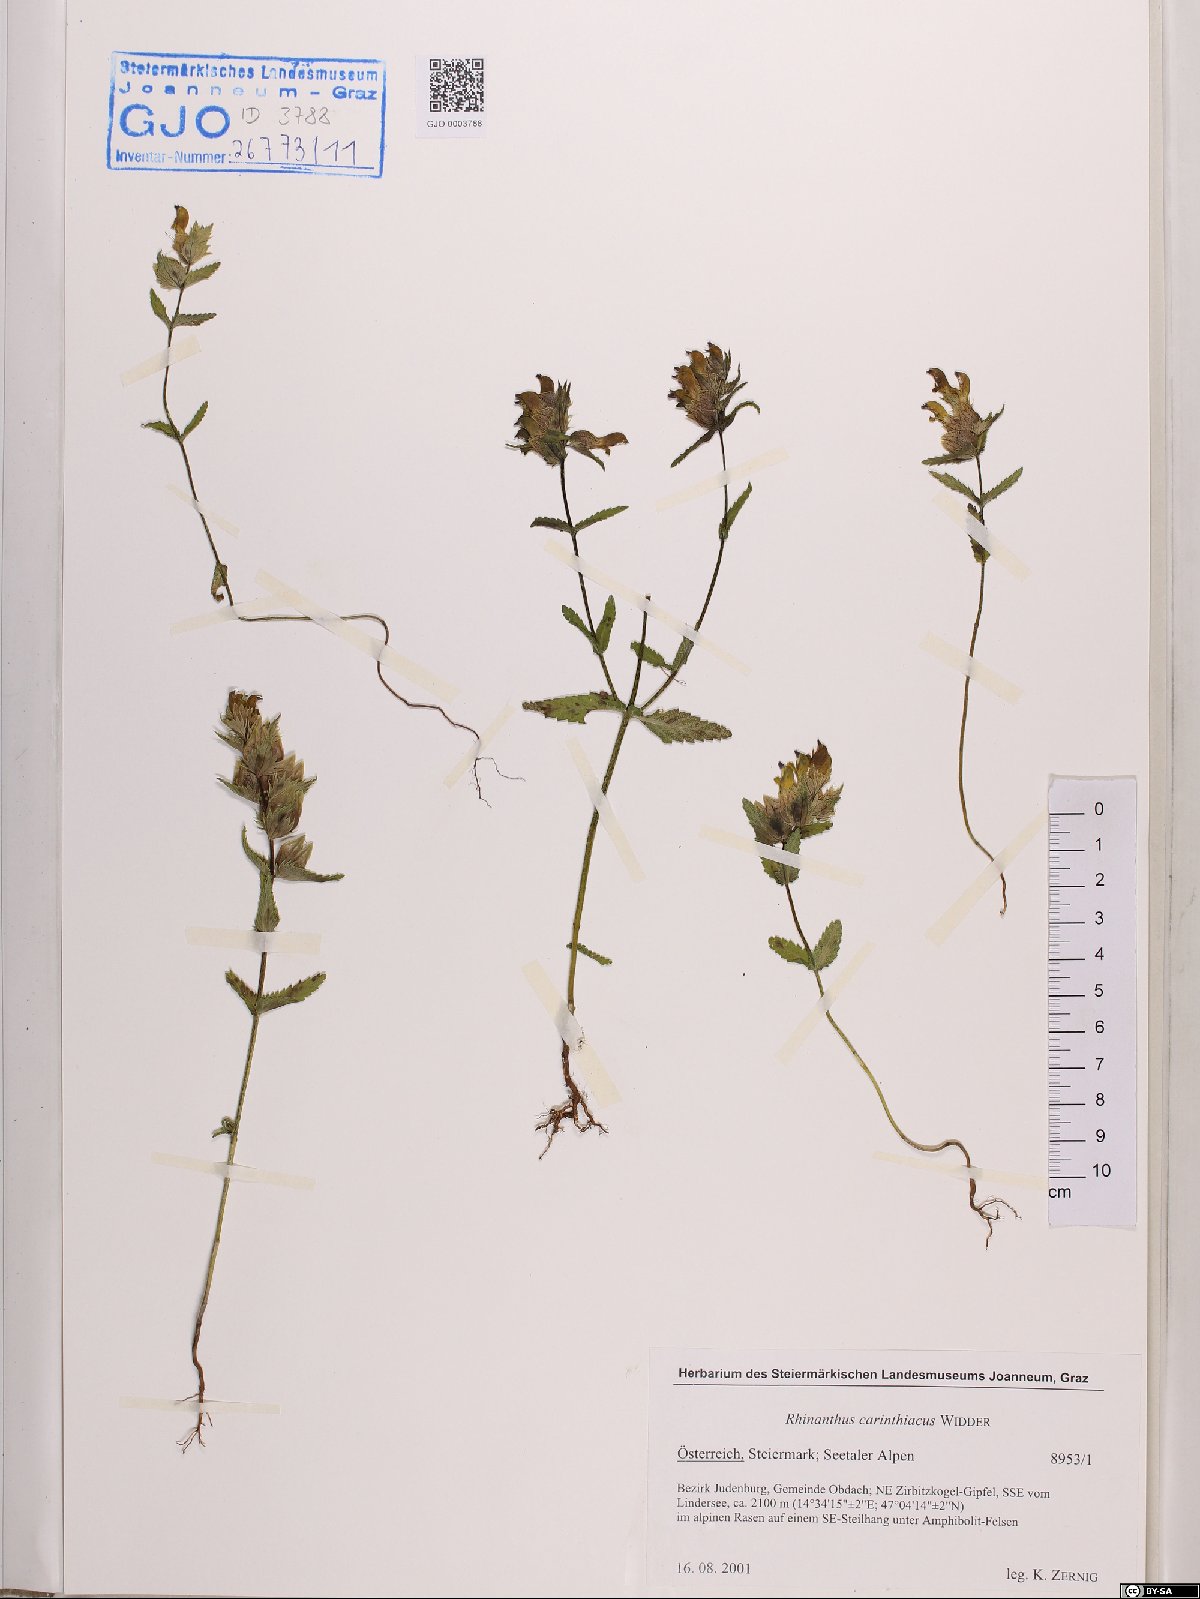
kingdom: Plantae
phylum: Tracheophyta
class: Magnoliopsida
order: Lamiales
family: Orobanchaceae
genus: Rhinanthus
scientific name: Rhinanthus carinthiacus
